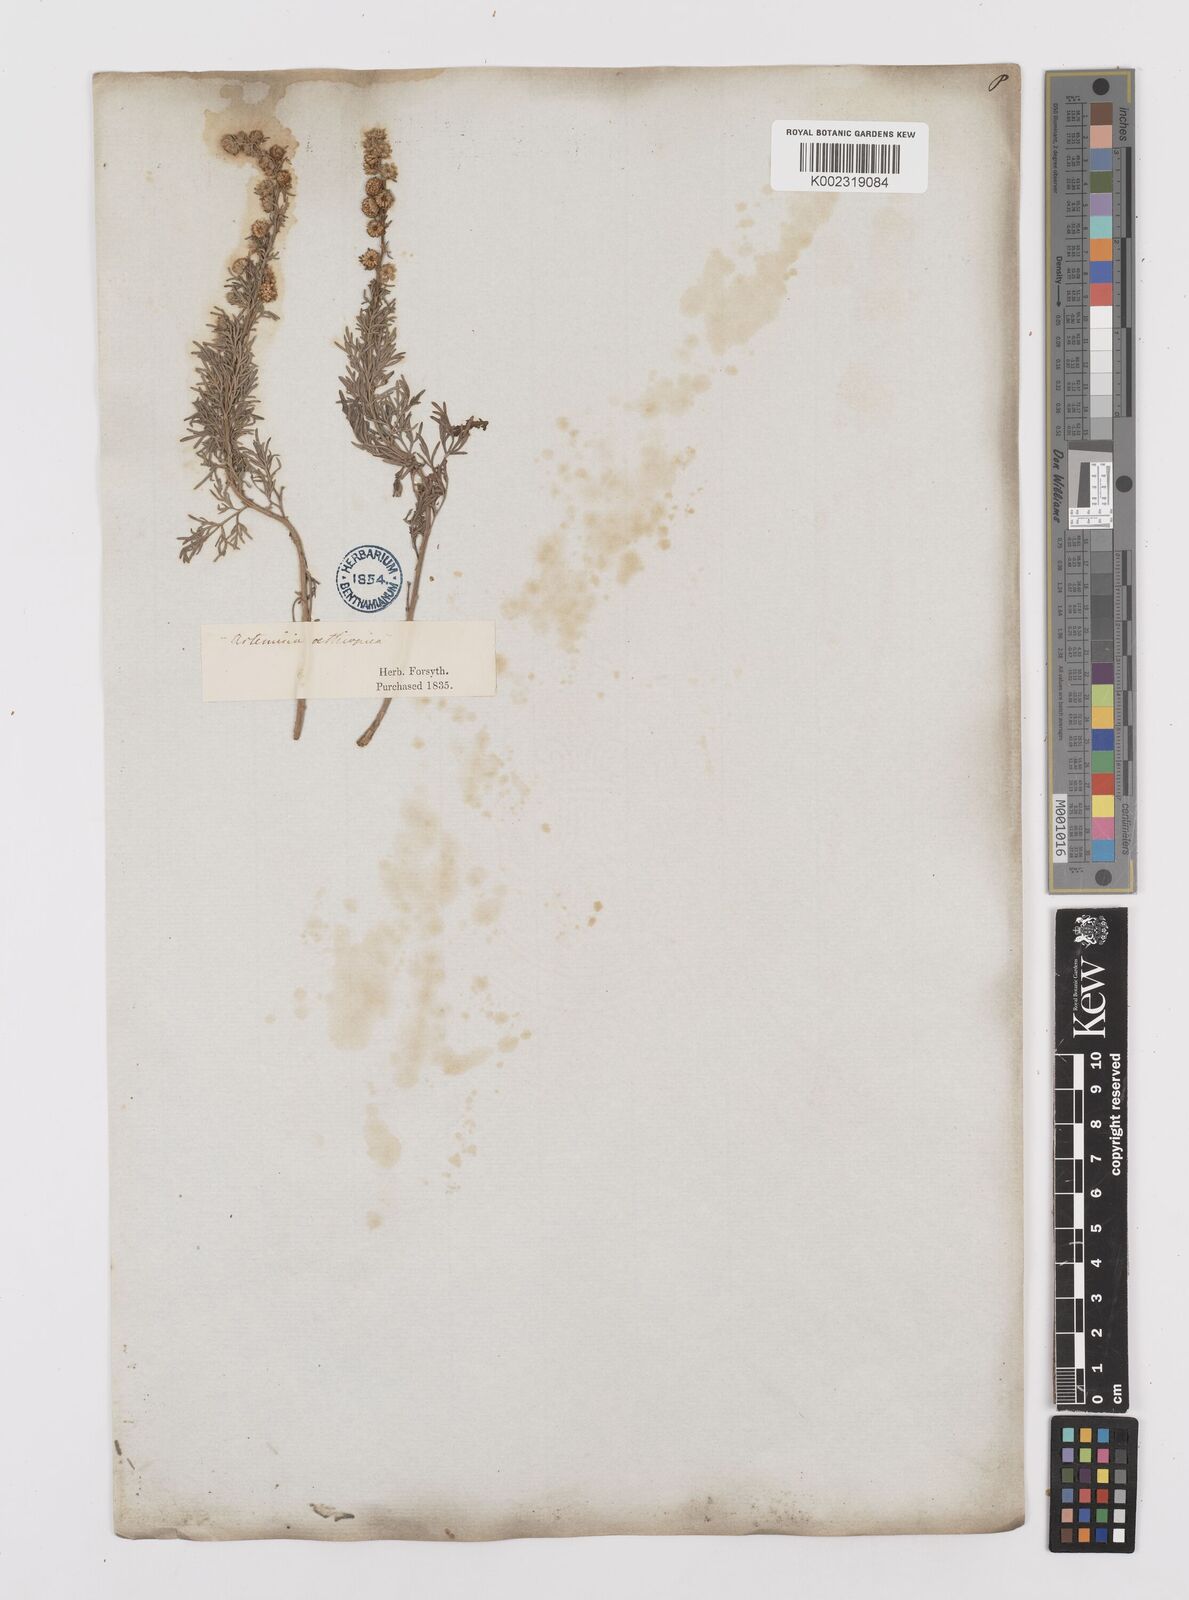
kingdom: Plantae
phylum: Tracheophyta
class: Magnoliopsida
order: Asterales
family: Asteraceae
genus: Artemisia
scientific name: Artemisia herba-alba
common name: White wormwood
